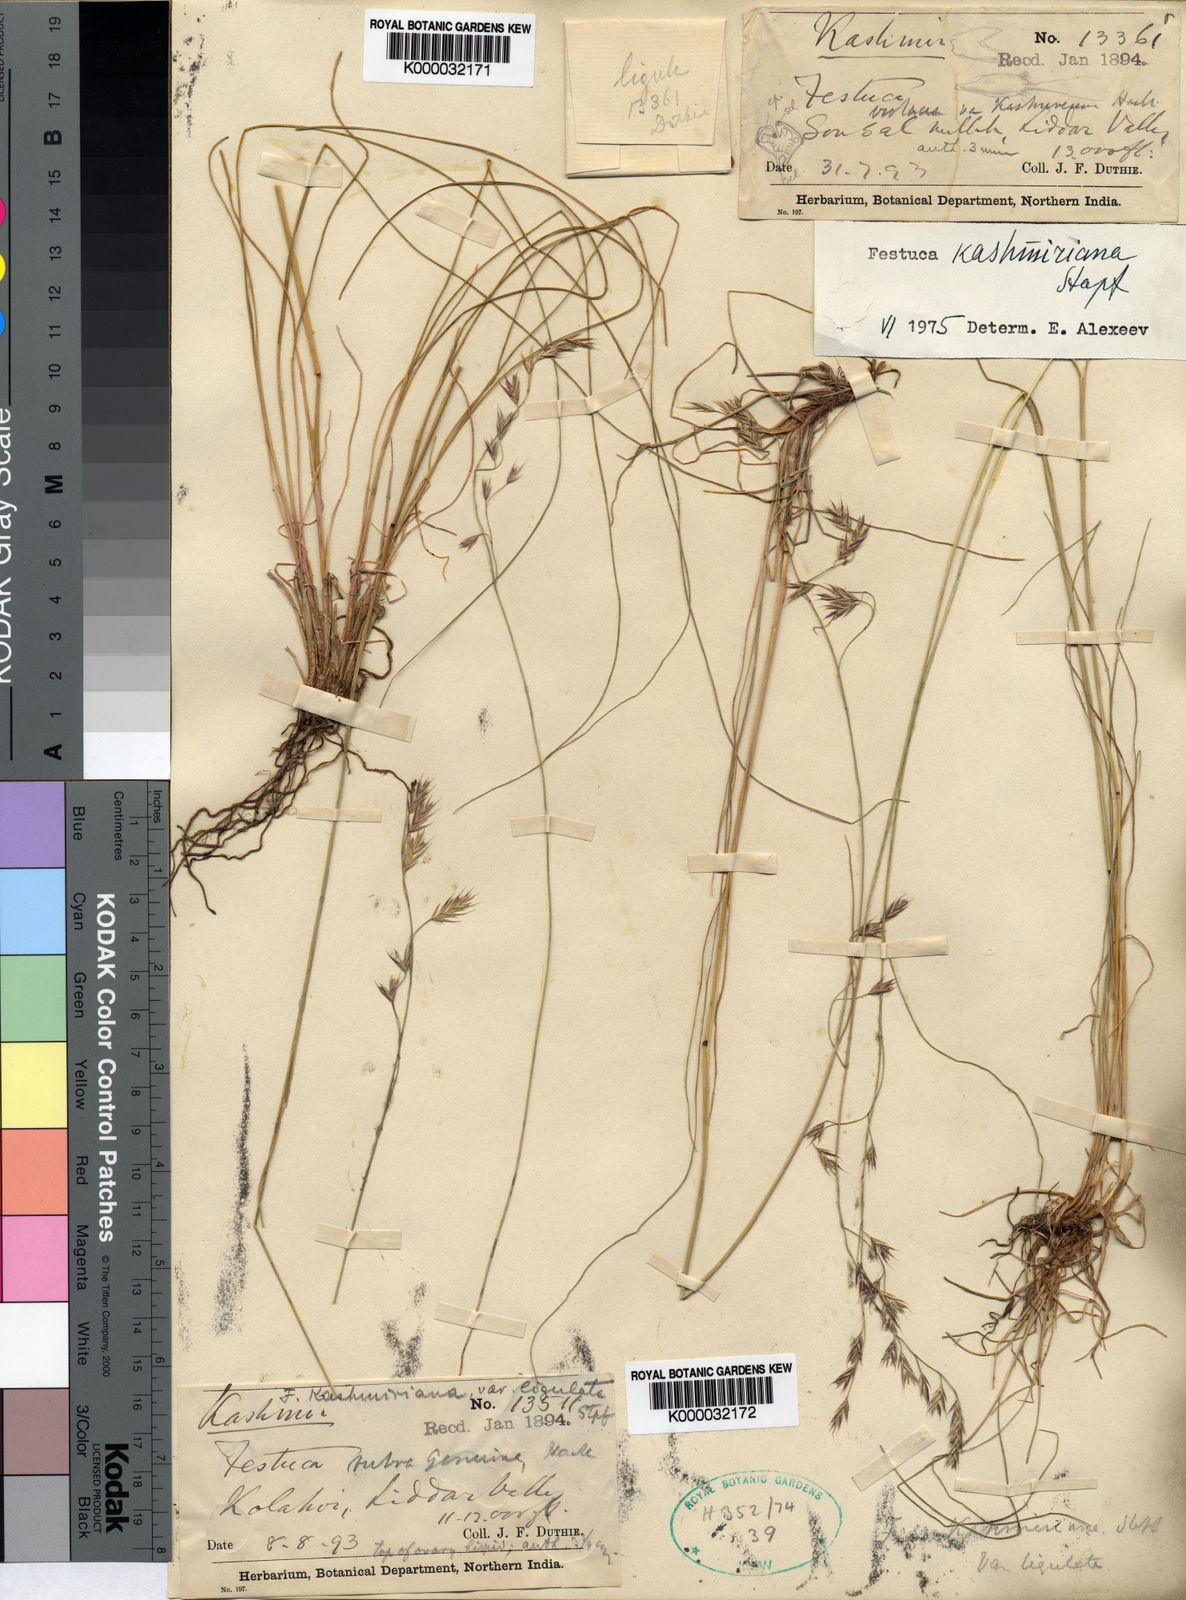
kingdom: Plantae
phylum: Tracheophyta
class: Liliopsida
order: Poales
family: Poaceae
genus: Festuca
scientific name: Festuca kashmiriana
